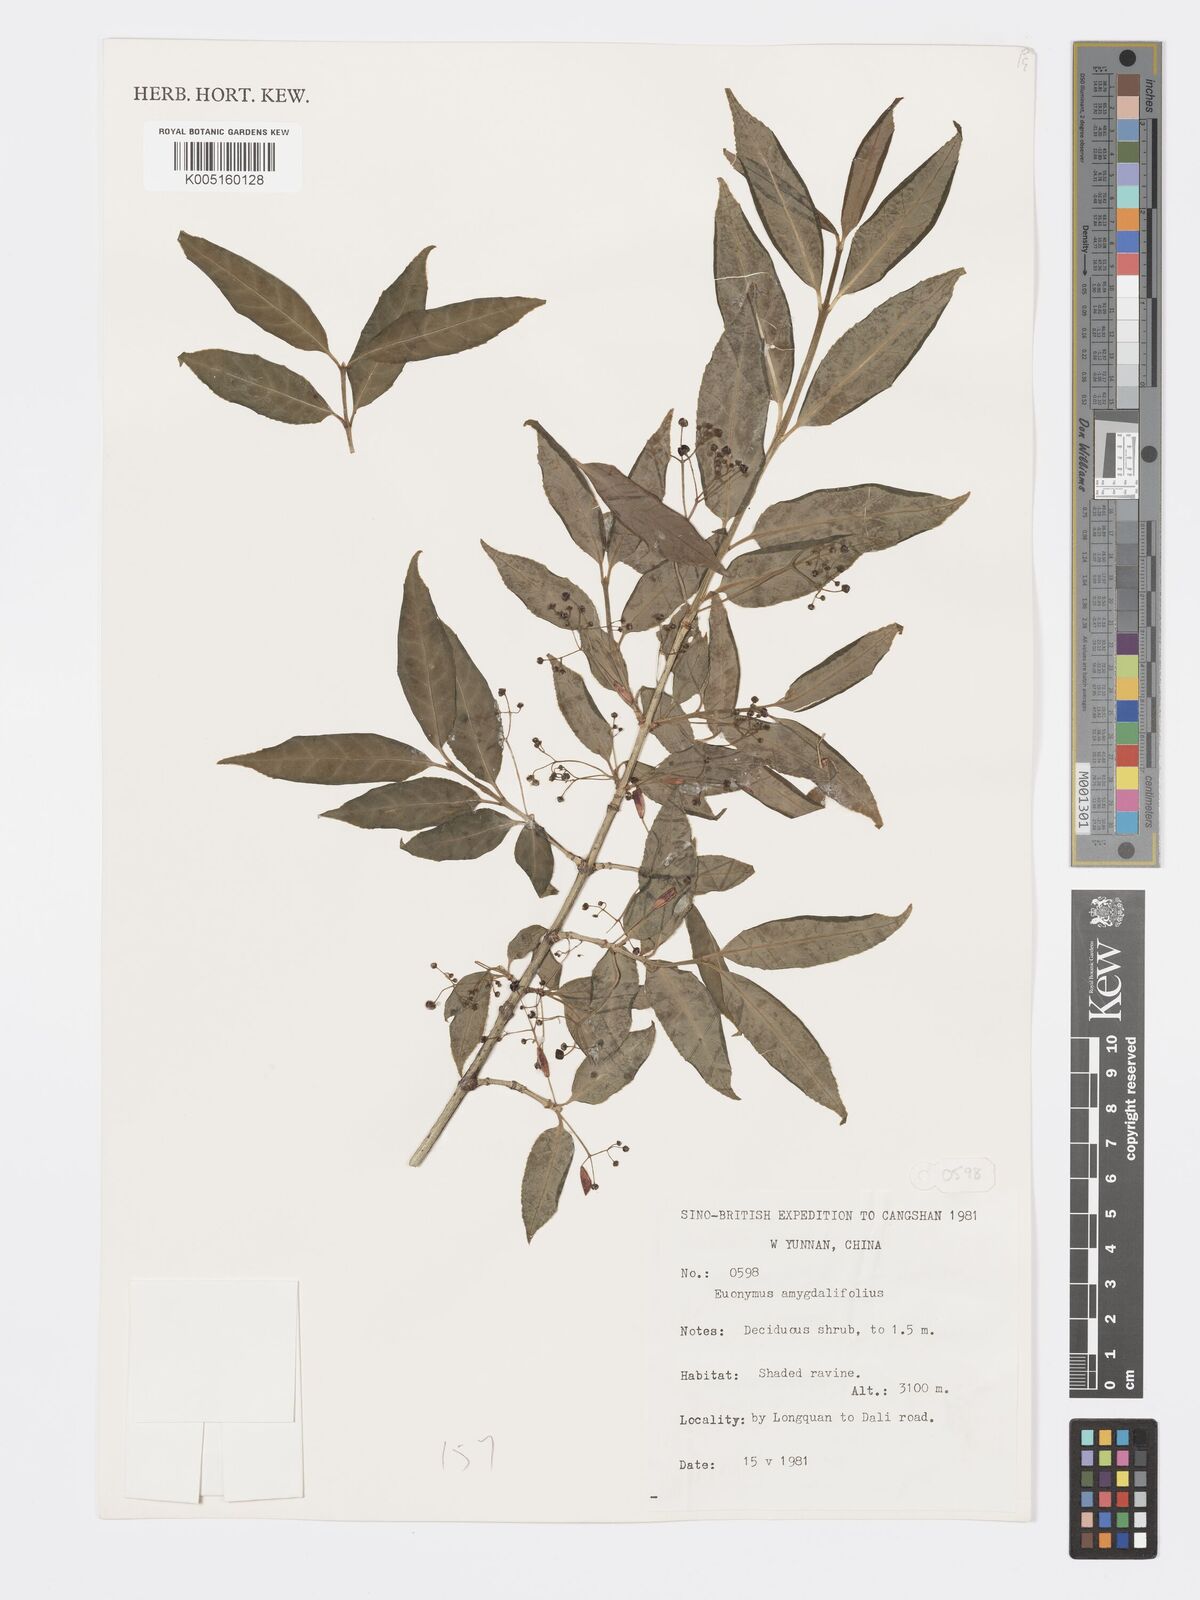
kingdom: Plantae
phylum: Tracheophyta
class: Magnoliopsida
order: Celastrales
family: Celastraceae
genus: Euonymus
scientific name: Euonymus amygdalifolius
